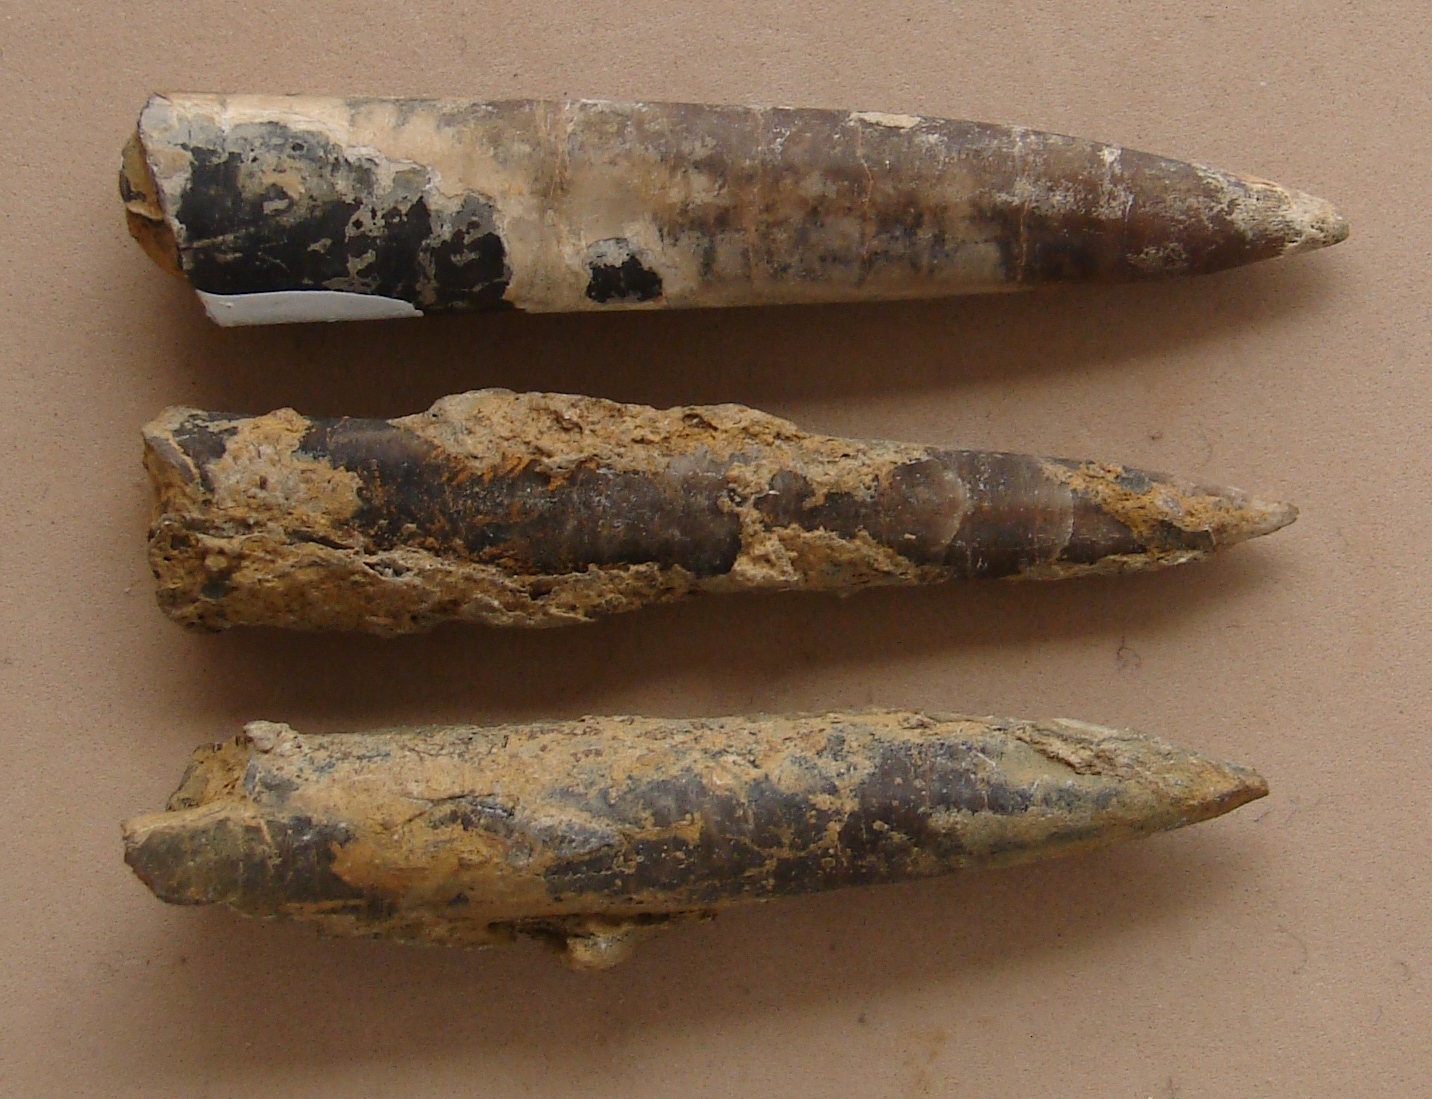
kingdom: Animalia
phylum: Mollusca
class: Cephalopoda
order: Belemnitida
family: Megateuthididae
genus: Acrocoelites
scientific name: Acrocoelites
